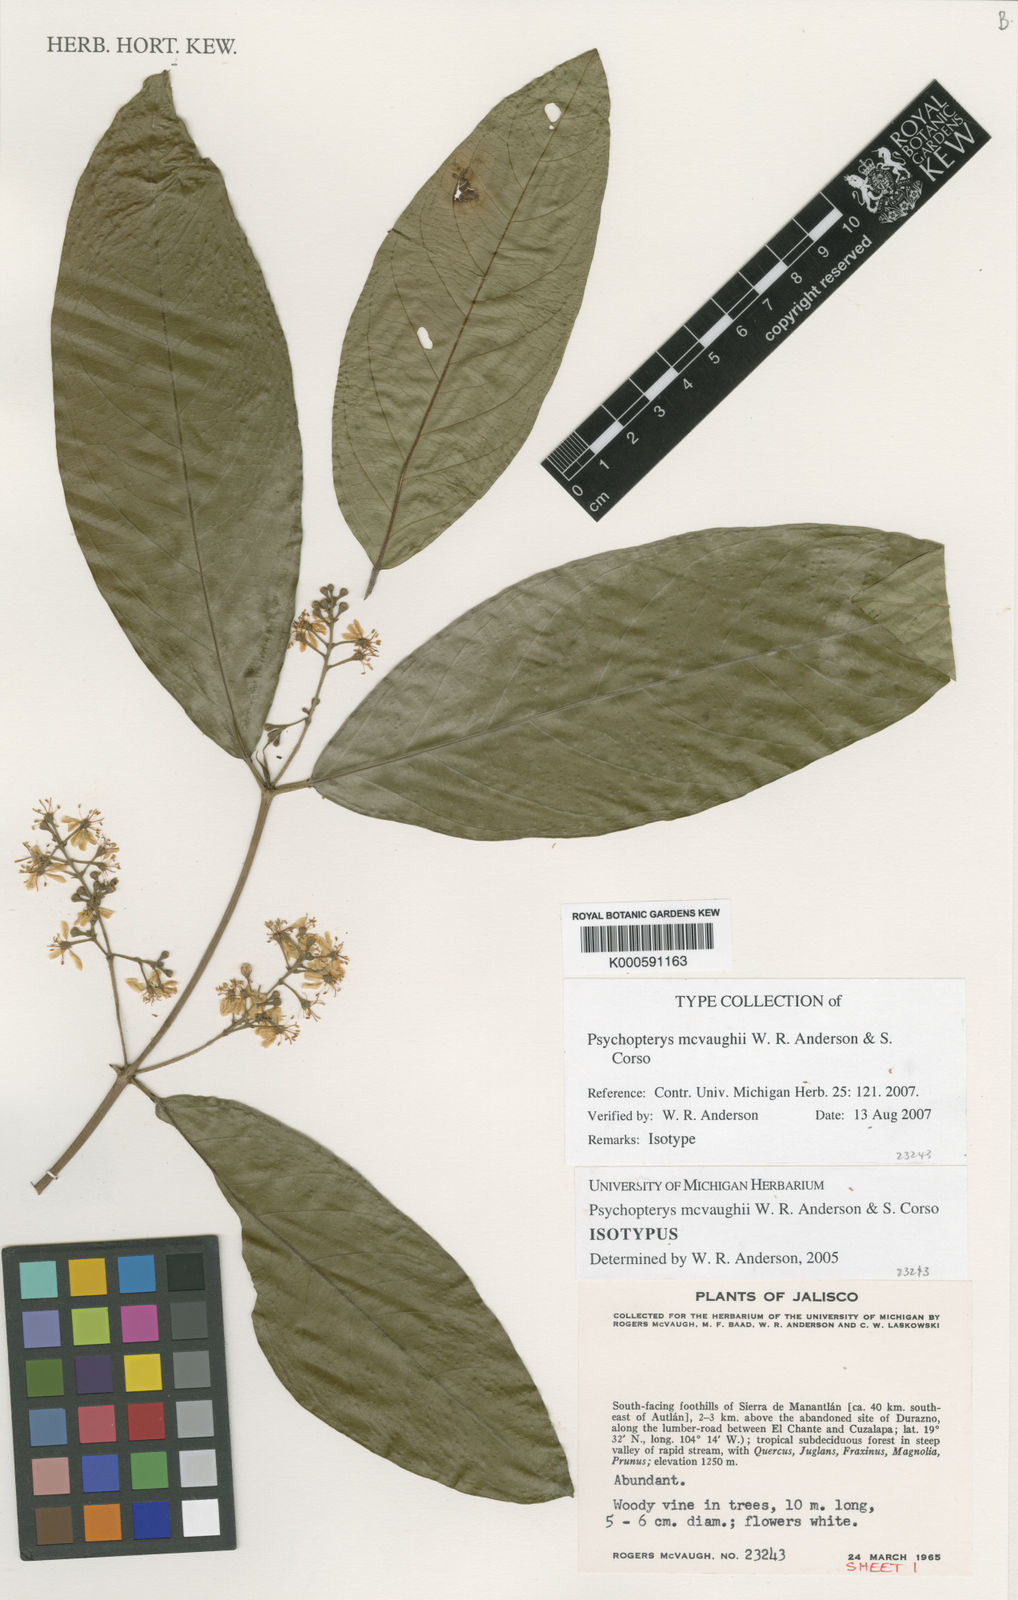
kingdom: Plantae
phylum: Tracheophyta
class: Magnoliopsida
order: Malpighiales
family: Malpighiaceae
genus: Psychopterys
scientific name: Psychopterys mcvaughii
